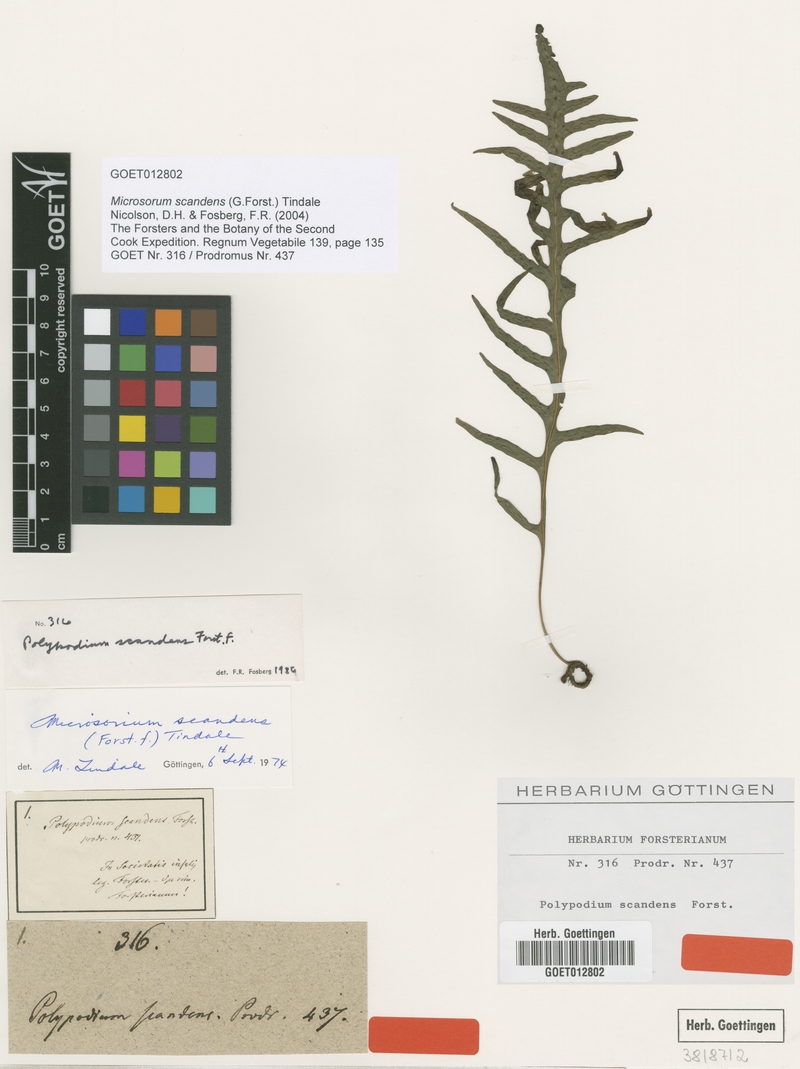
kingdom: Plantae
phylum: Tracheophyta
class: Polypodiopsida
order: Polypodiales
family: Polypodiaceae
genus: Lecanopteris
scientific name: Lecanopteris scandens
